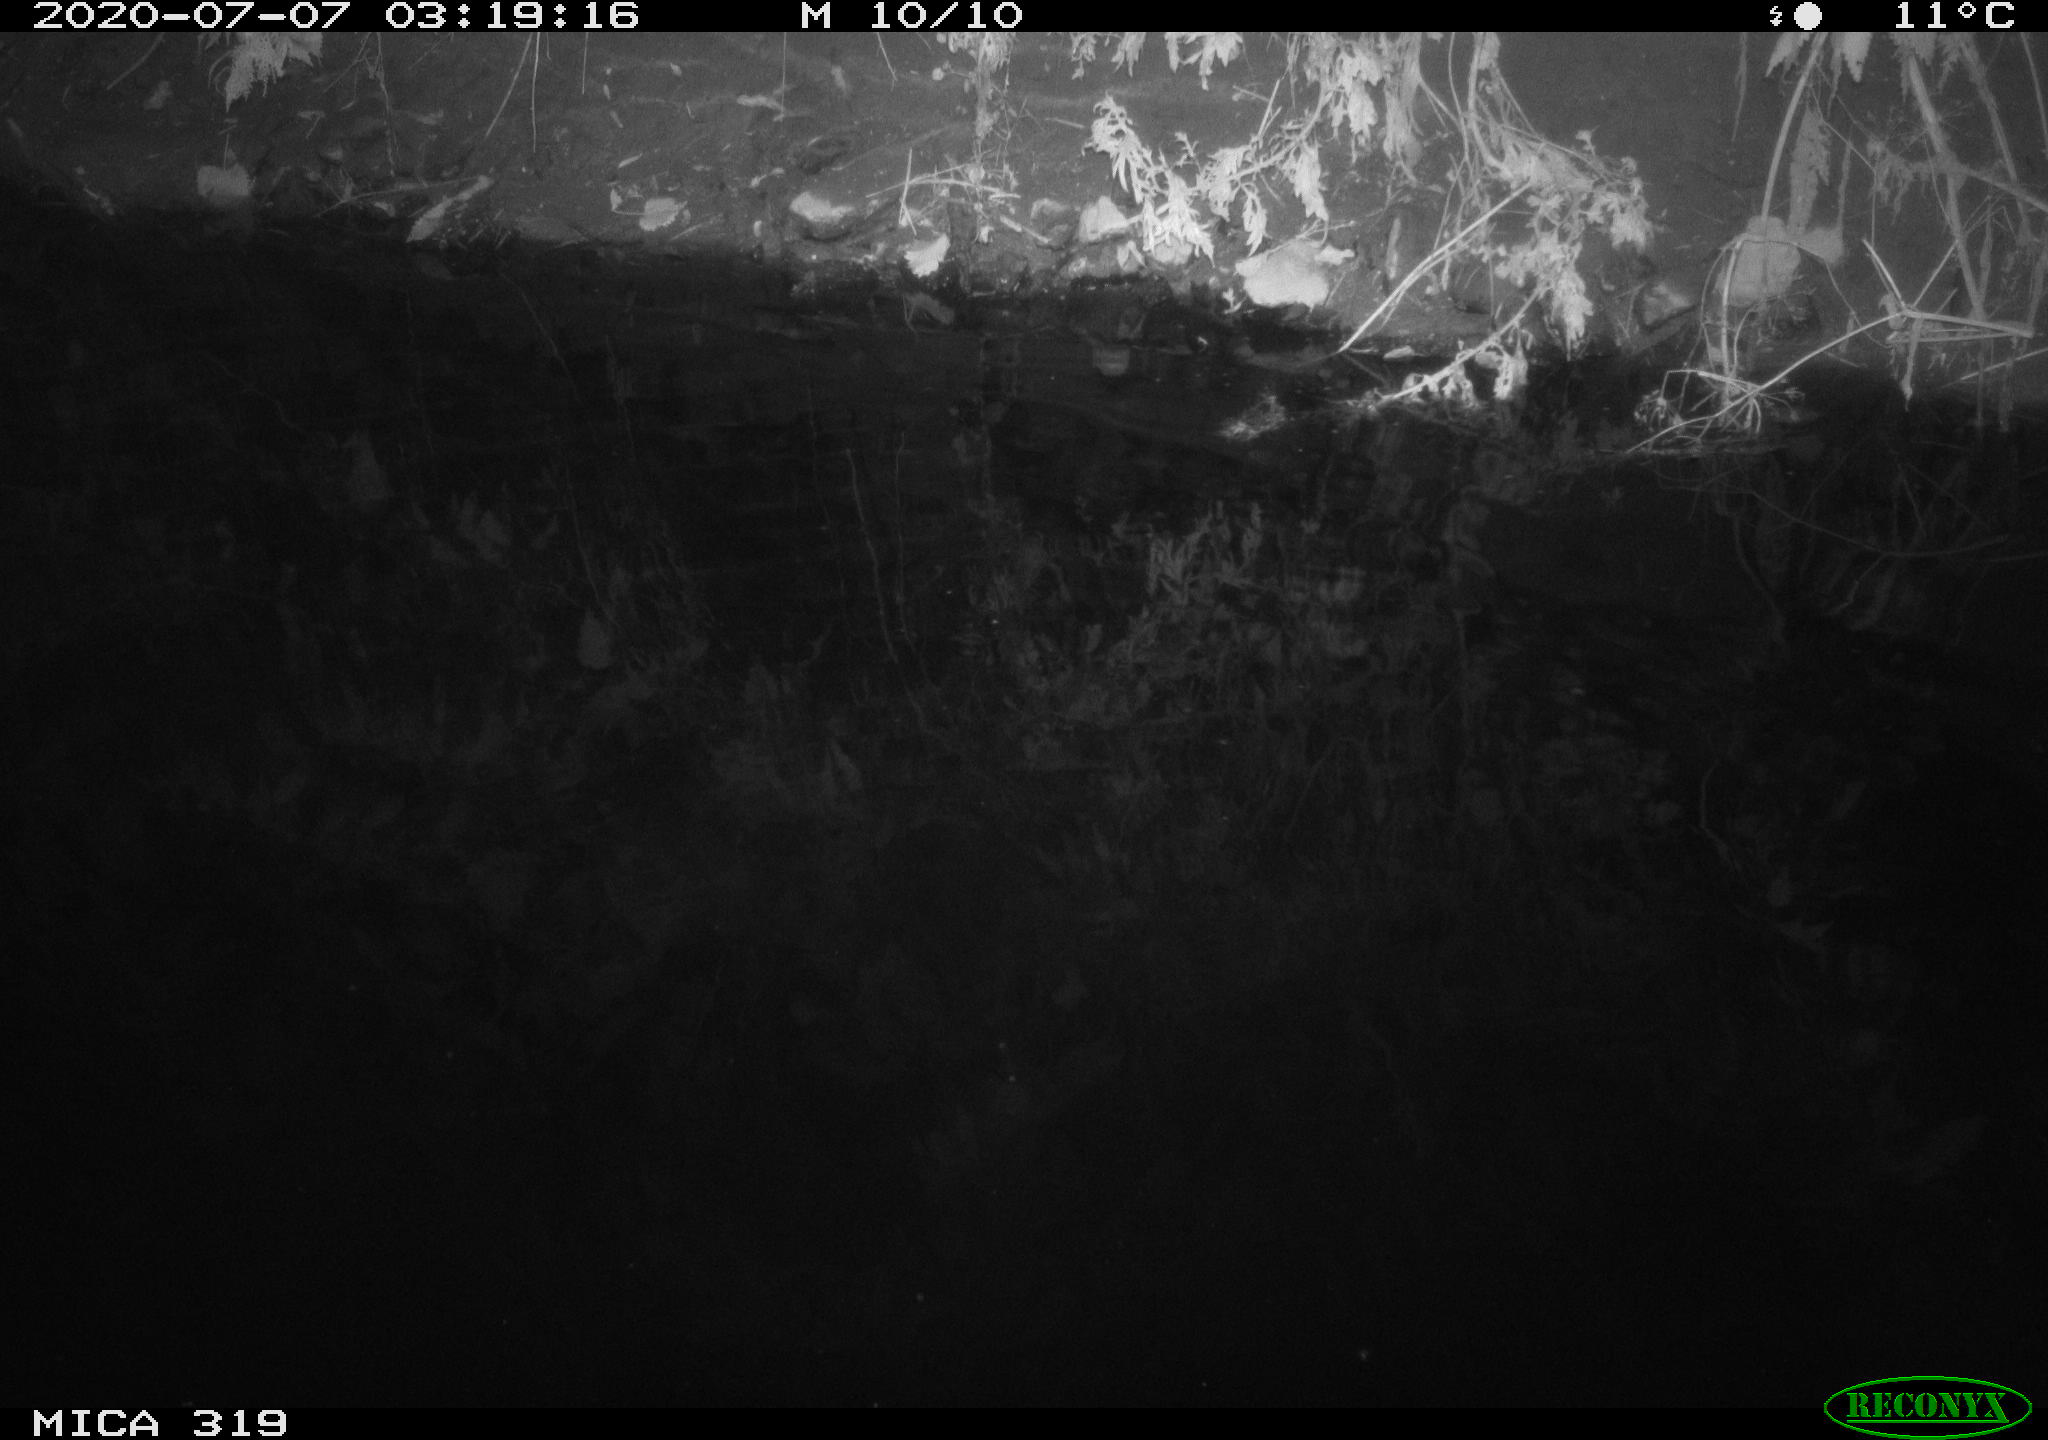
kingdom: Animalia
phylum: Chordata
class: Aves
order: Anseriformes
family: Anatidae
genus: Anas
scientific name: Anas platyrhynchos
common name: Mallard
